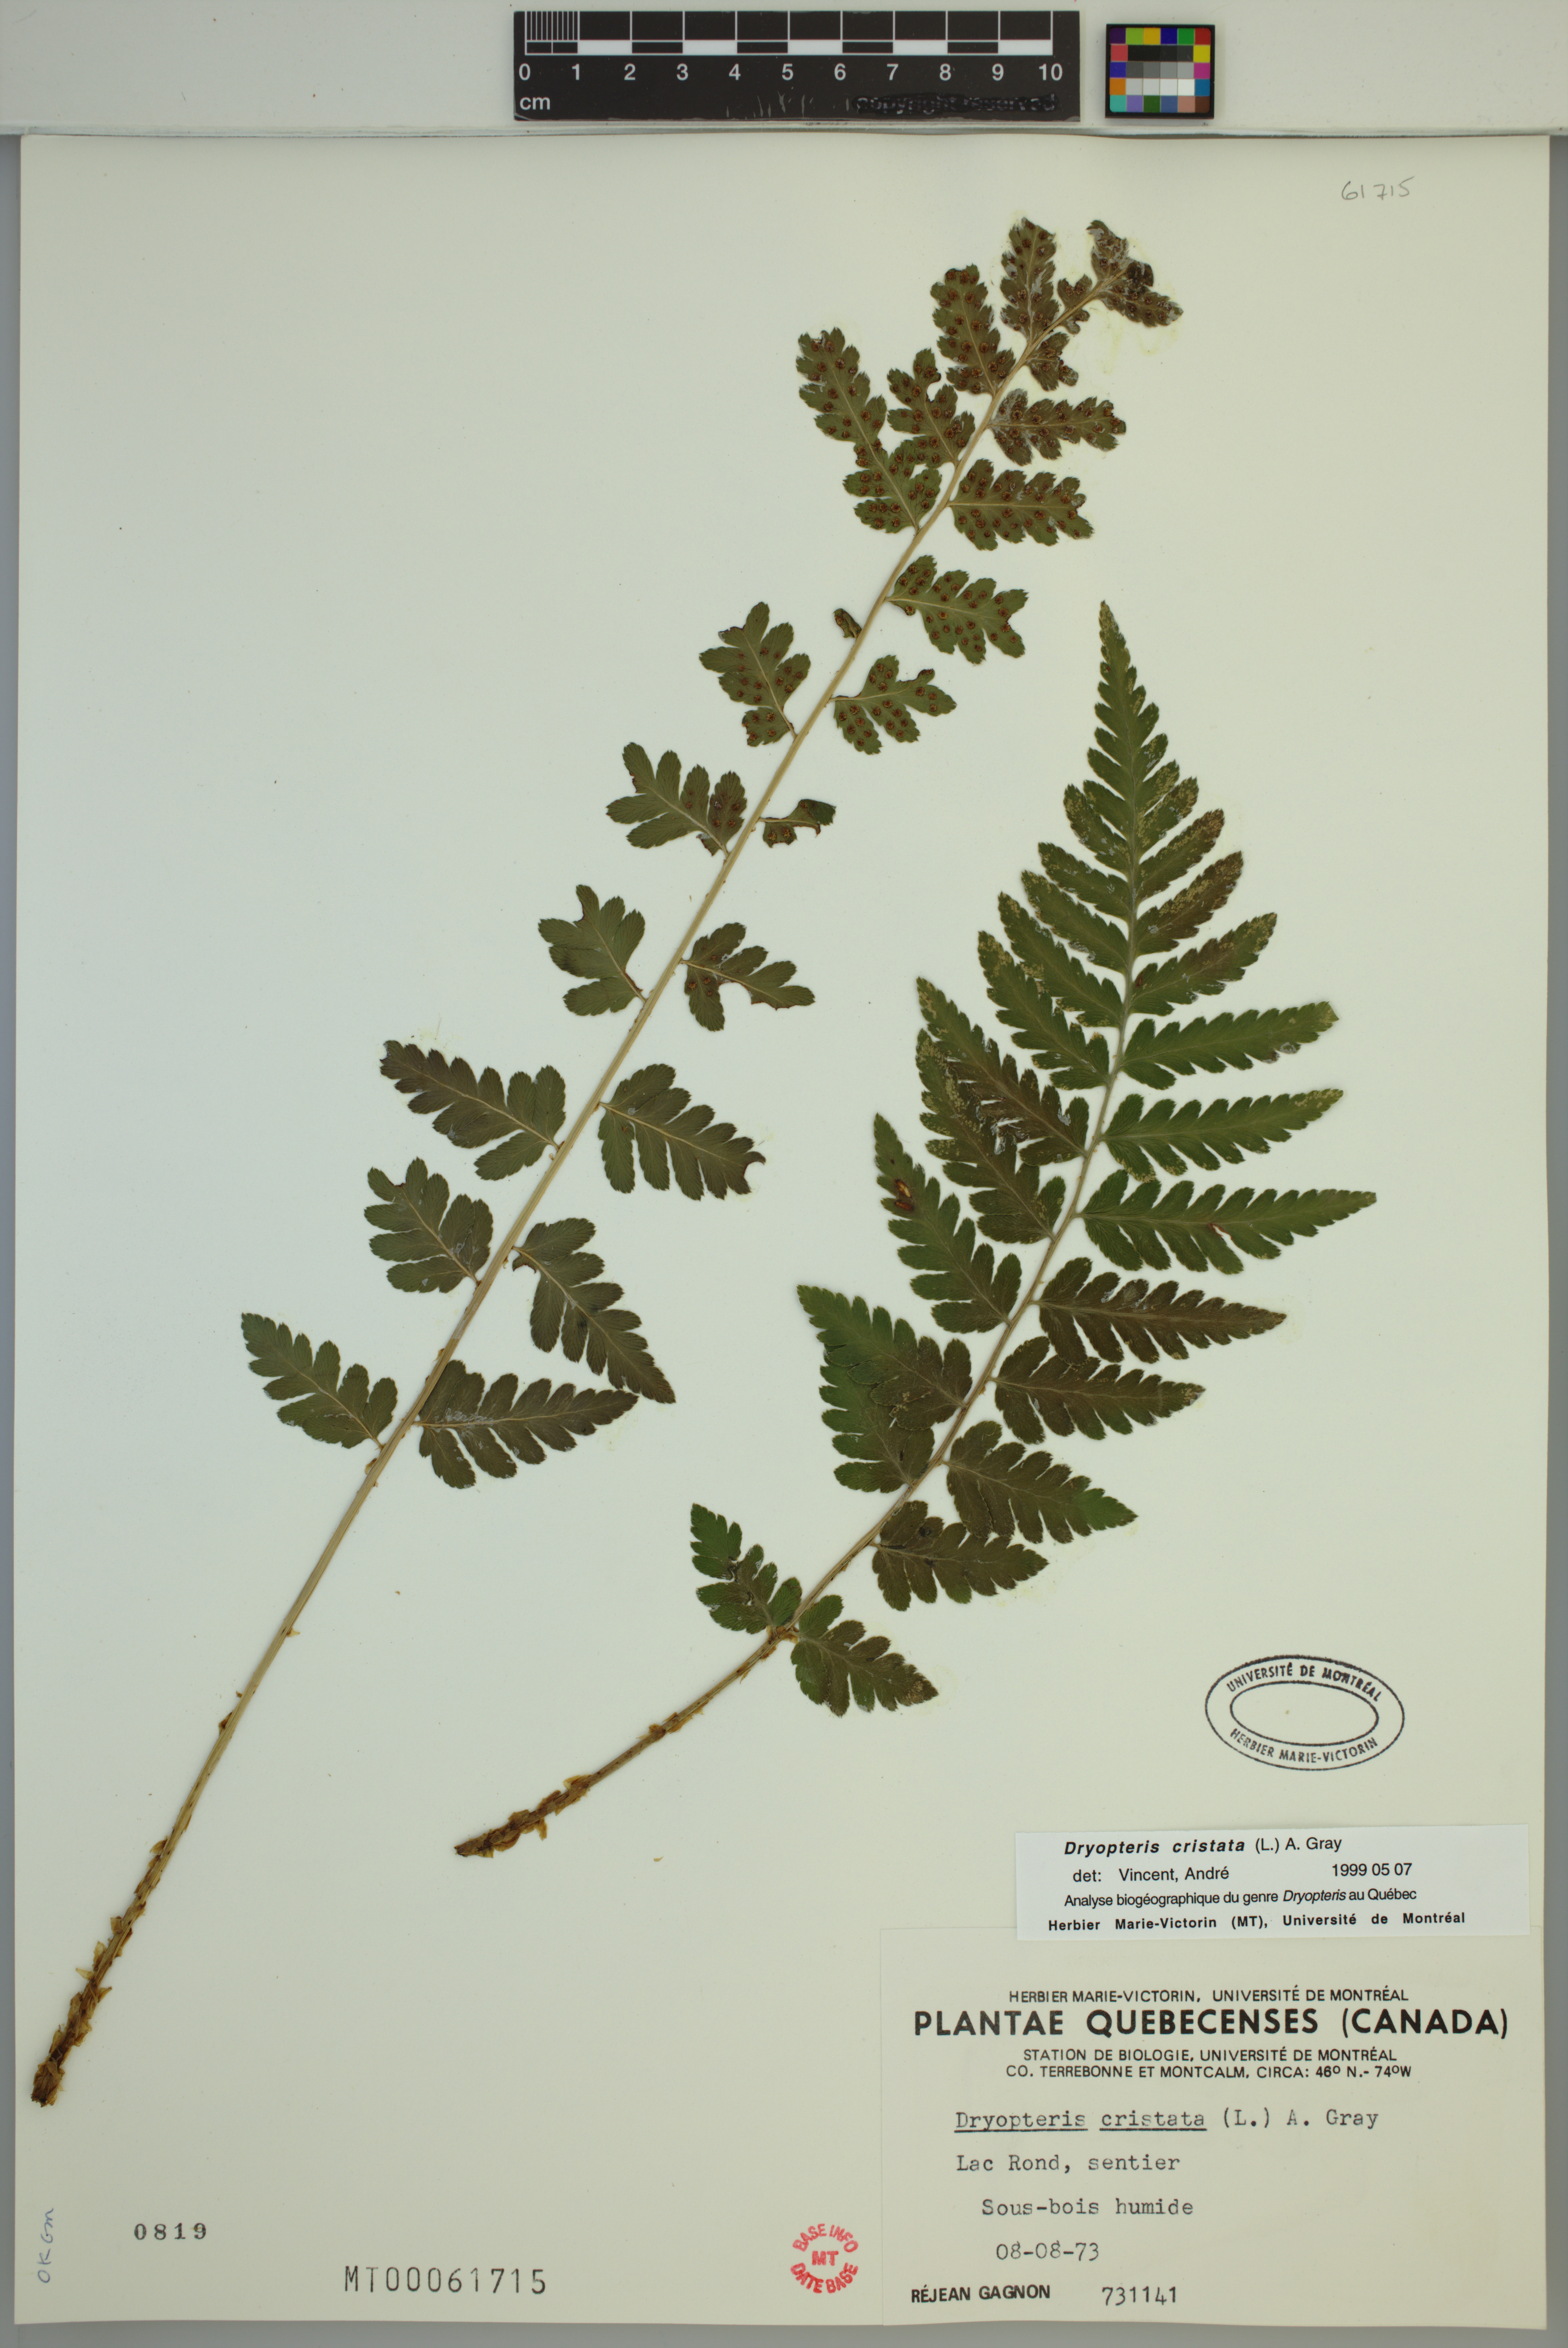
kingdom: Plantae
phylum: Tracheophyta
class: Polypodiopsida
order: Polypodiales
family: Dryopteridaceae
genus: Dryopteris
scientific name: Dryopteris cristata
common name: Crested wood fern
